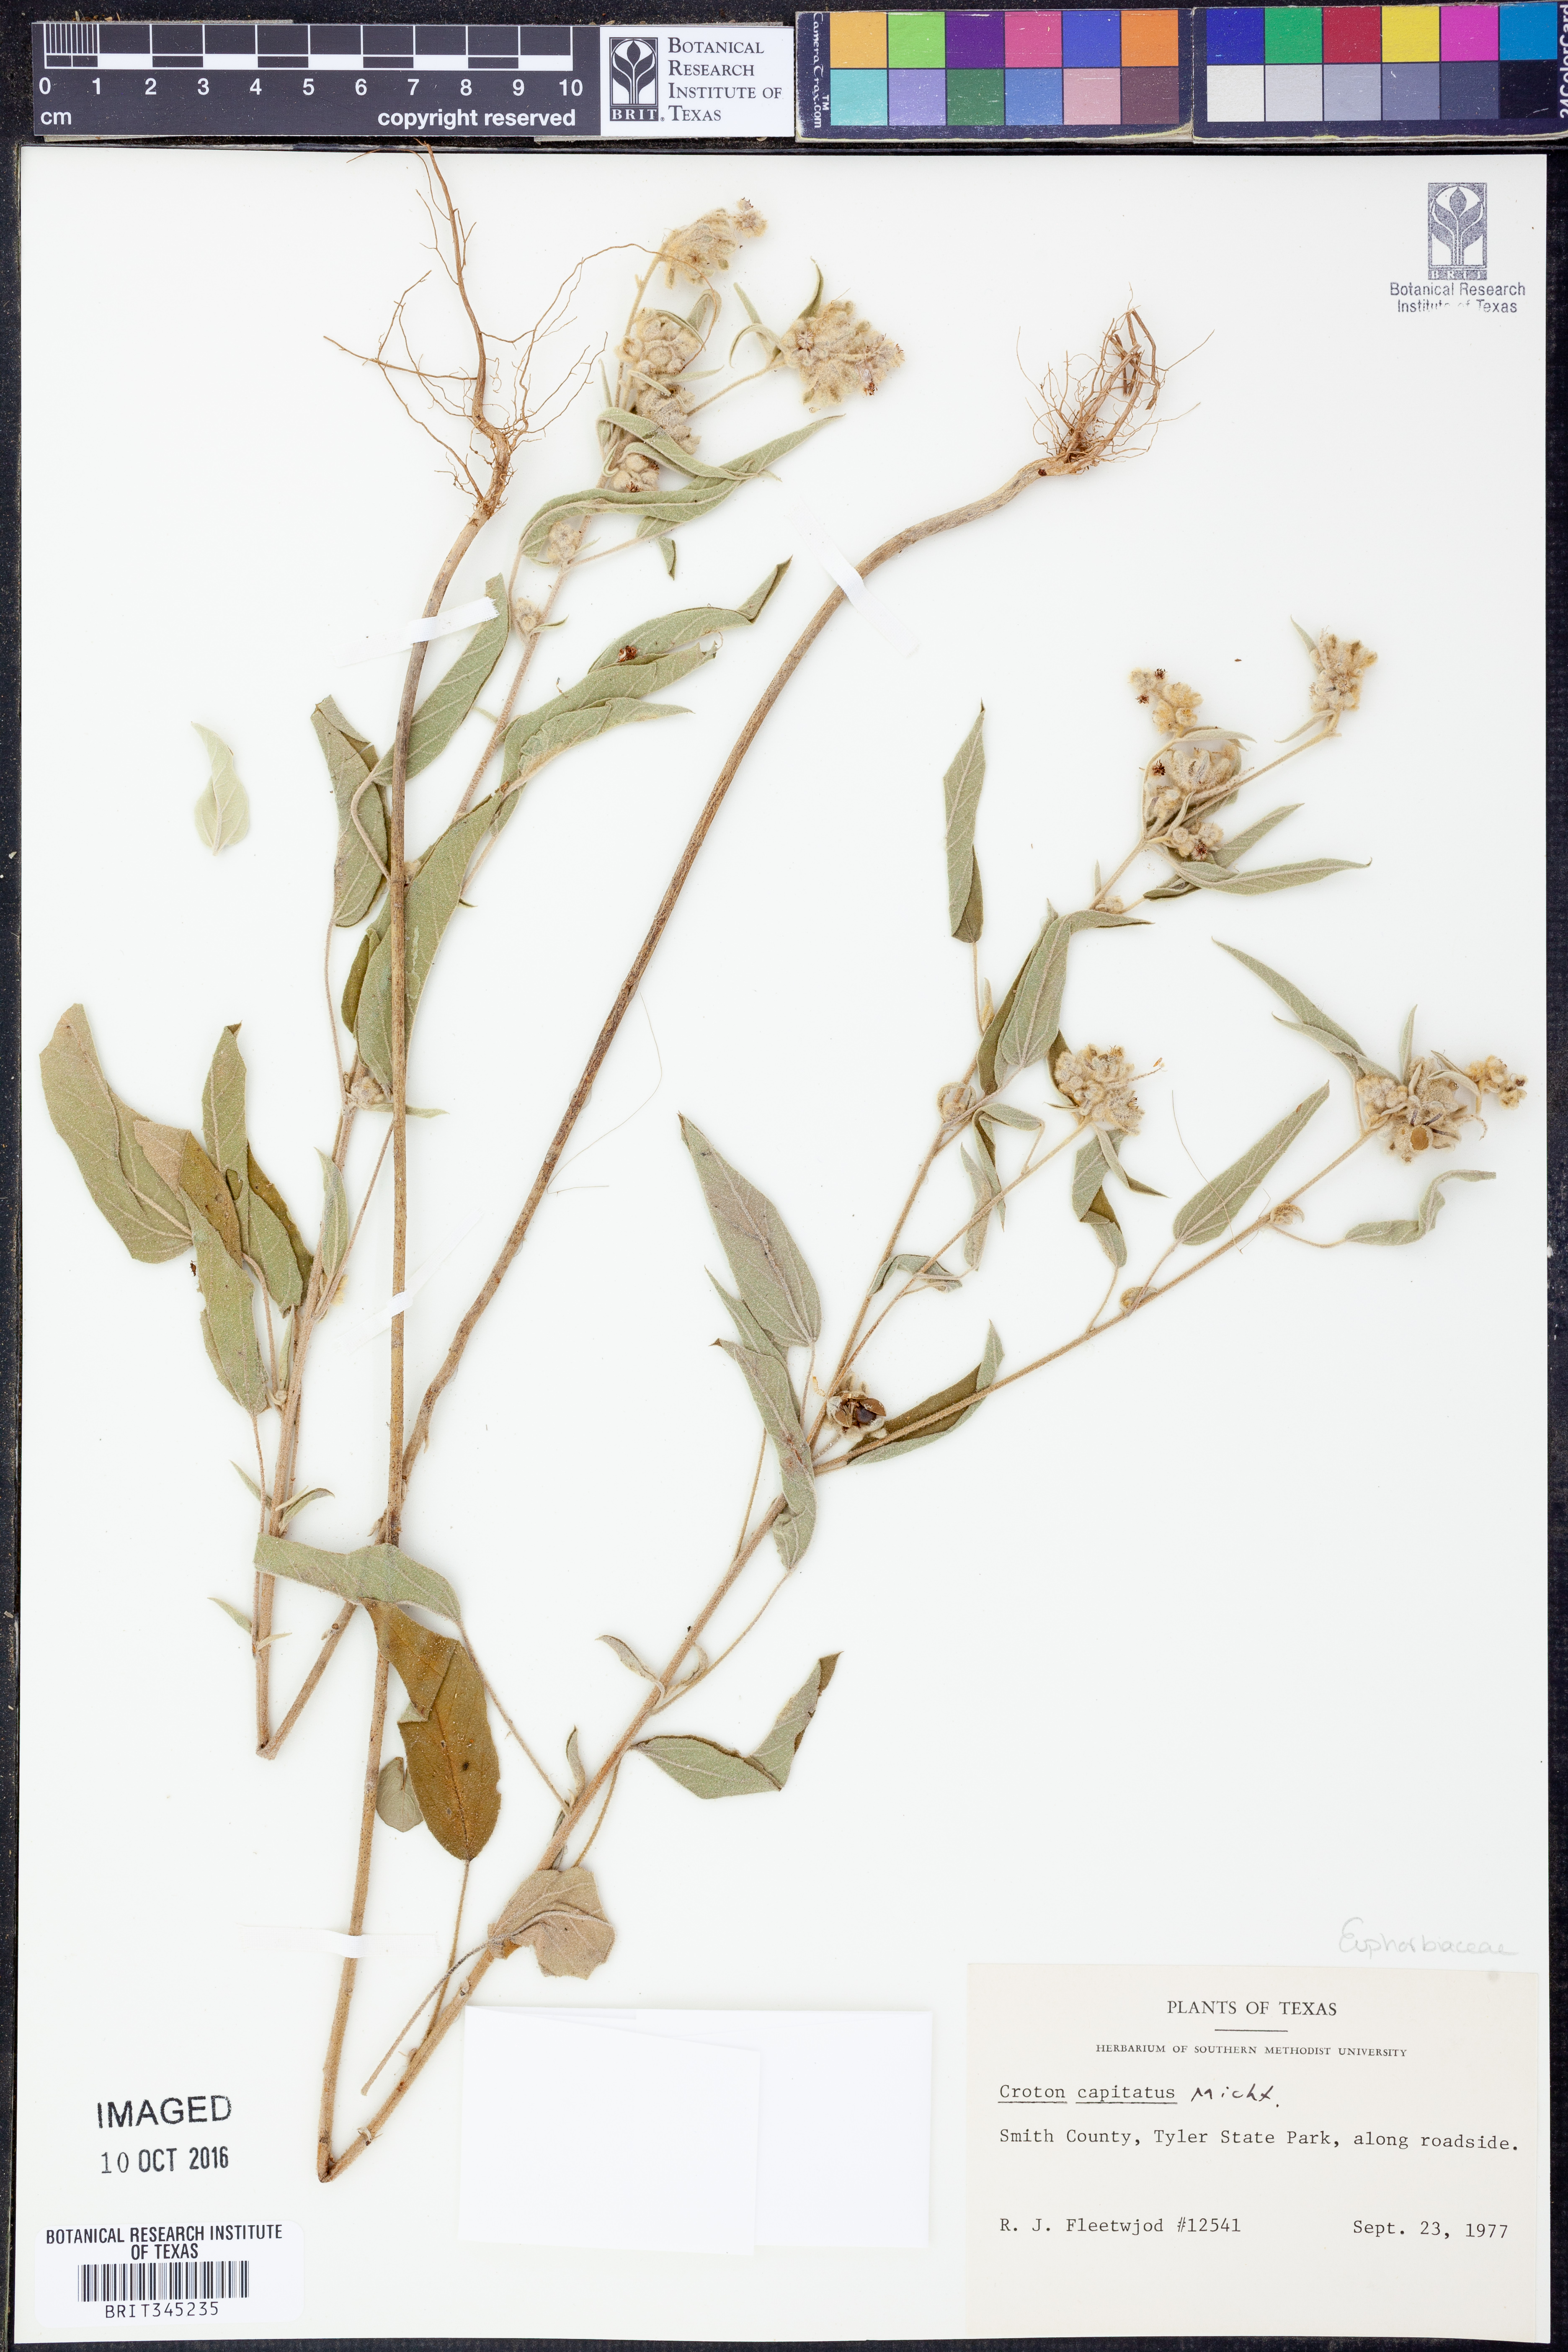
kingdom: Plantae
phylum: Tracheophyta
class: Magnoliopsida
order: Malpighiales
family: Euphorbiaceae
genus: Croton
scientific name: Croton capitatus
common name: Woolly croton
